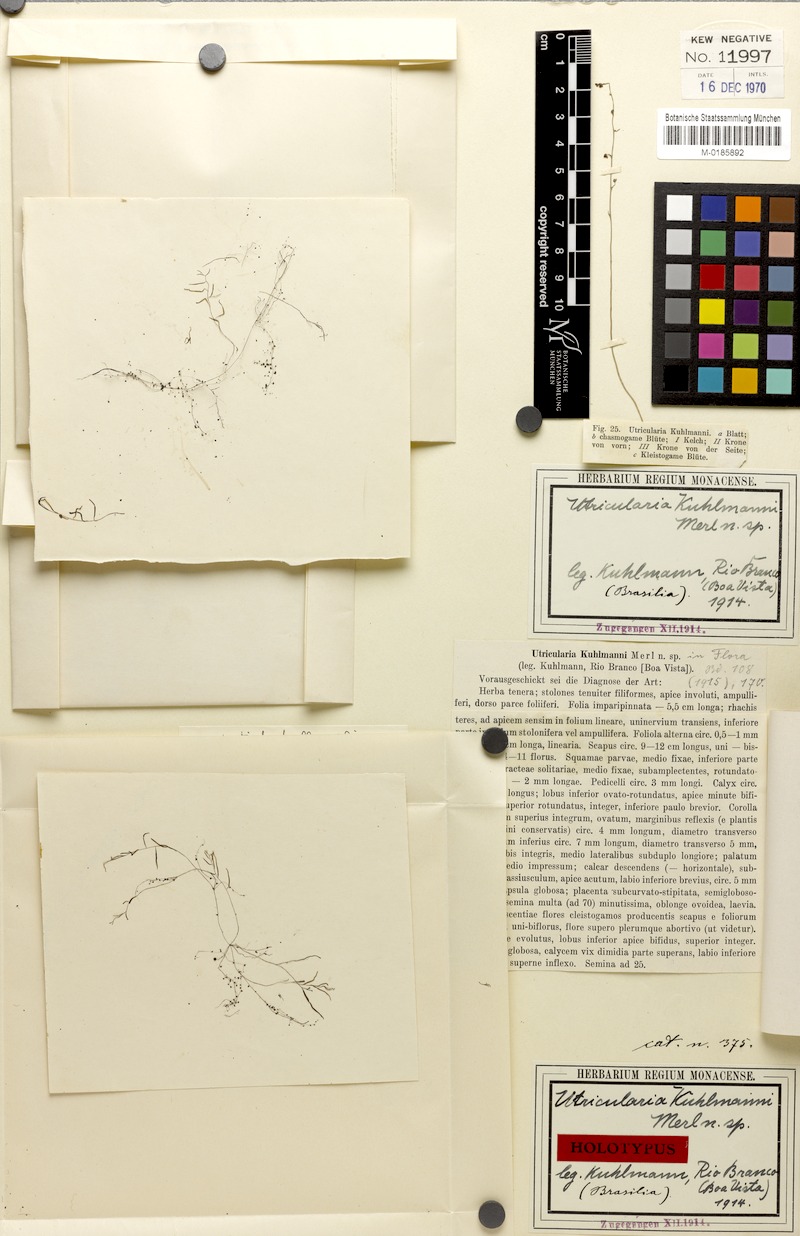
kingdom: Plantae
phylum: Tracheophyta
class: Magnoliopsida
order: Lamiales
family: Lentibulariaceae
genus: Utricularia
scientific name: Utricularia trichophylla
